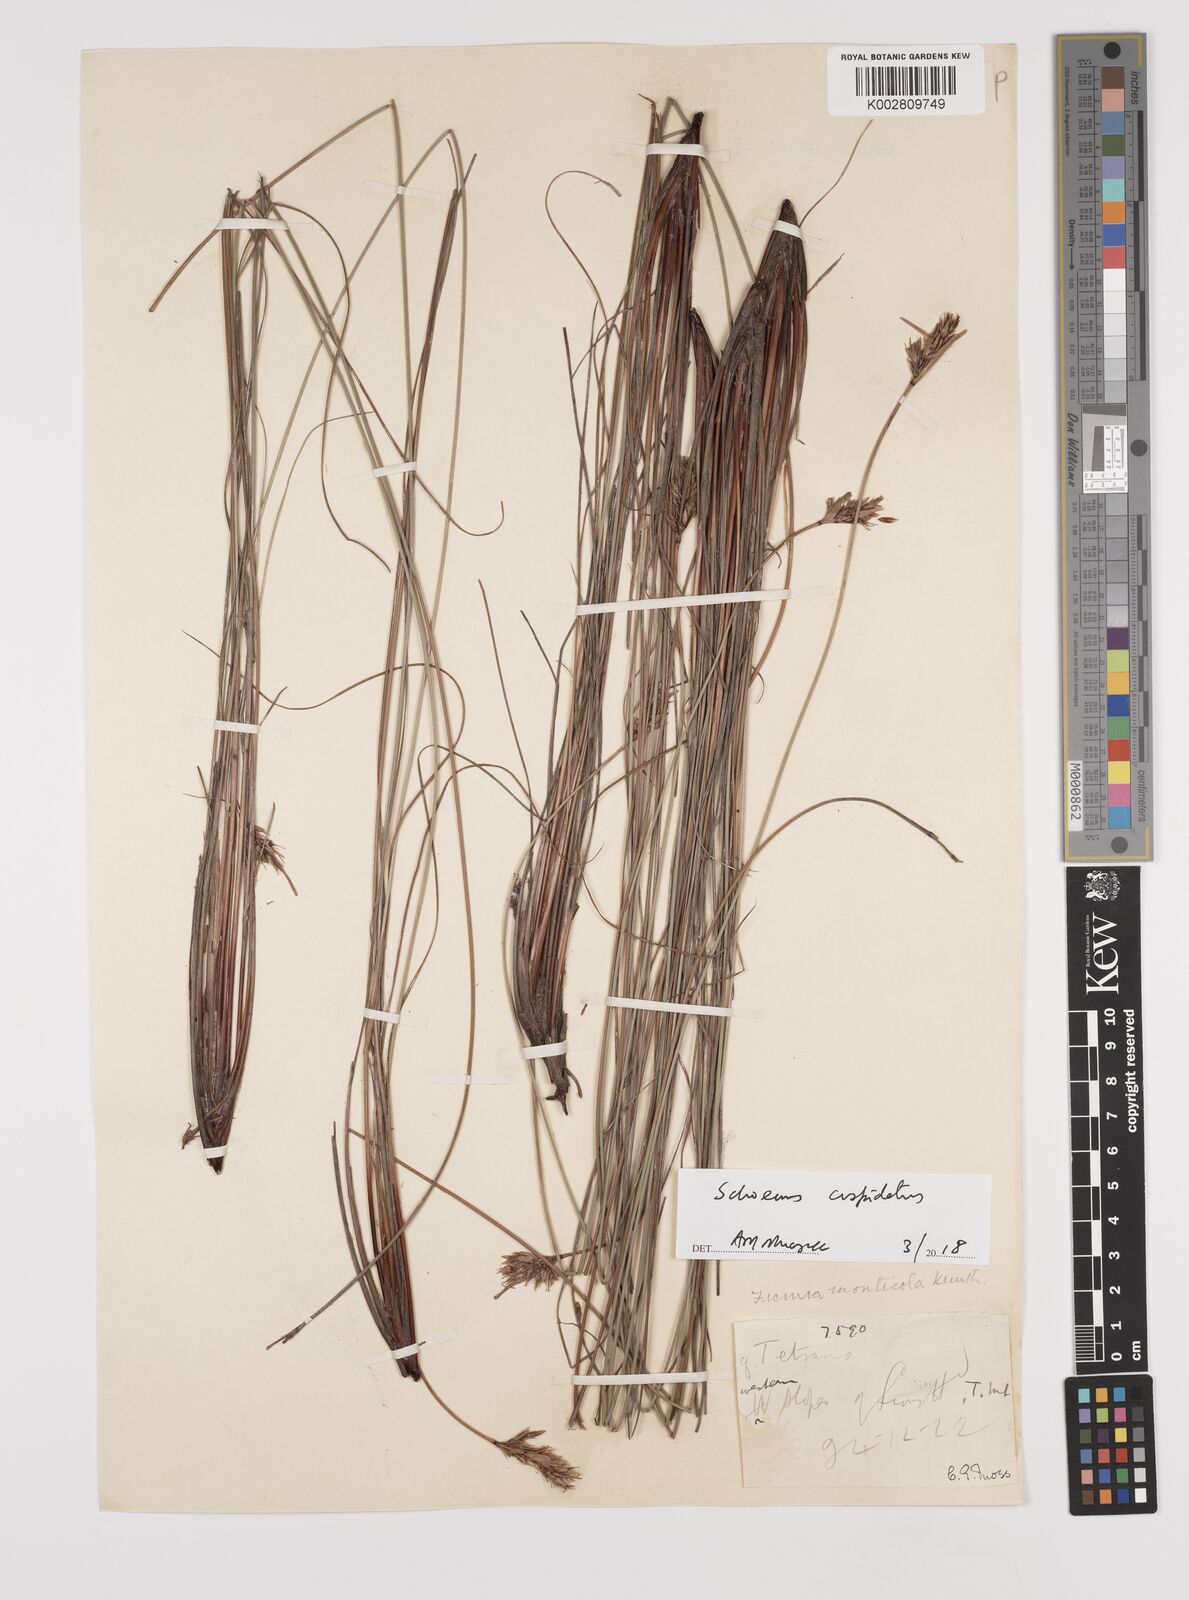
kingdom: Plantae
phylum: Tracheophyta
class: Liliopsida
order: Poales
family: Cyperaceae
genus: Schoenus
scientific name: Schoenus cuspidatus
